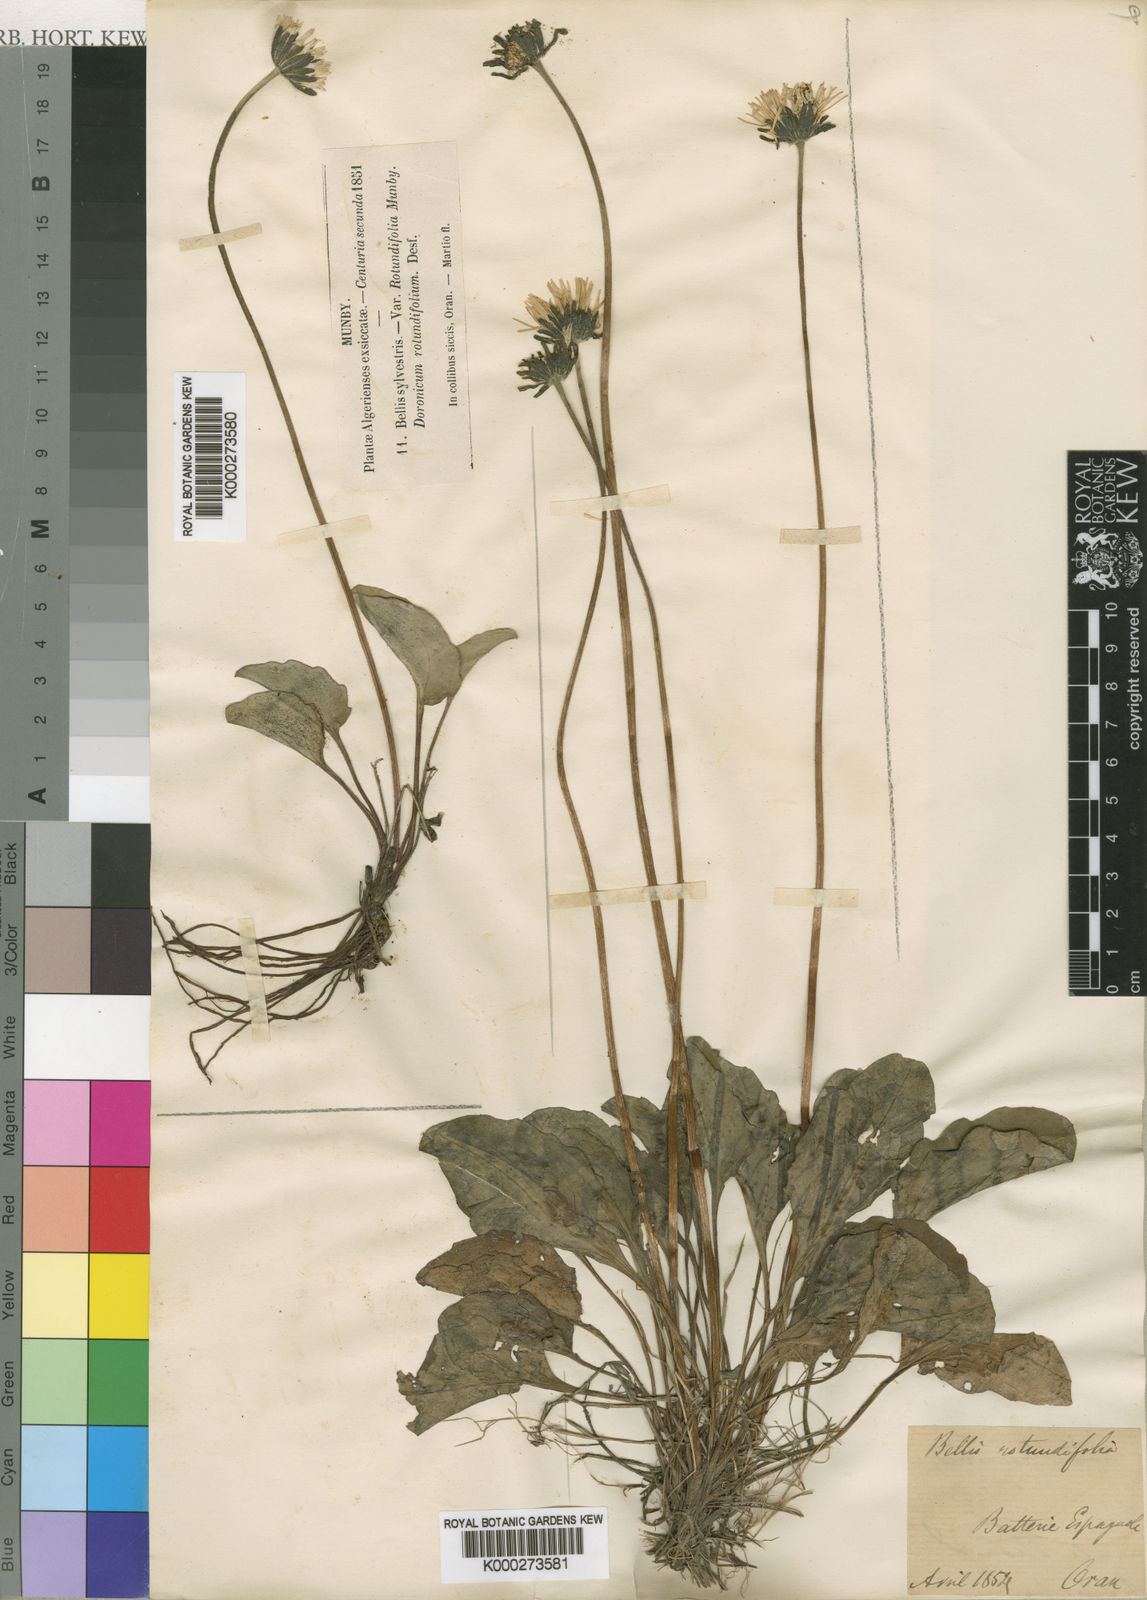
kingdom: Plantae
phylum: Tracheophyta
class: Magnoliopsida
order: Asterales
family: Asteraceae
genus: Bellis
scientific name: Bellis rotundifolia
